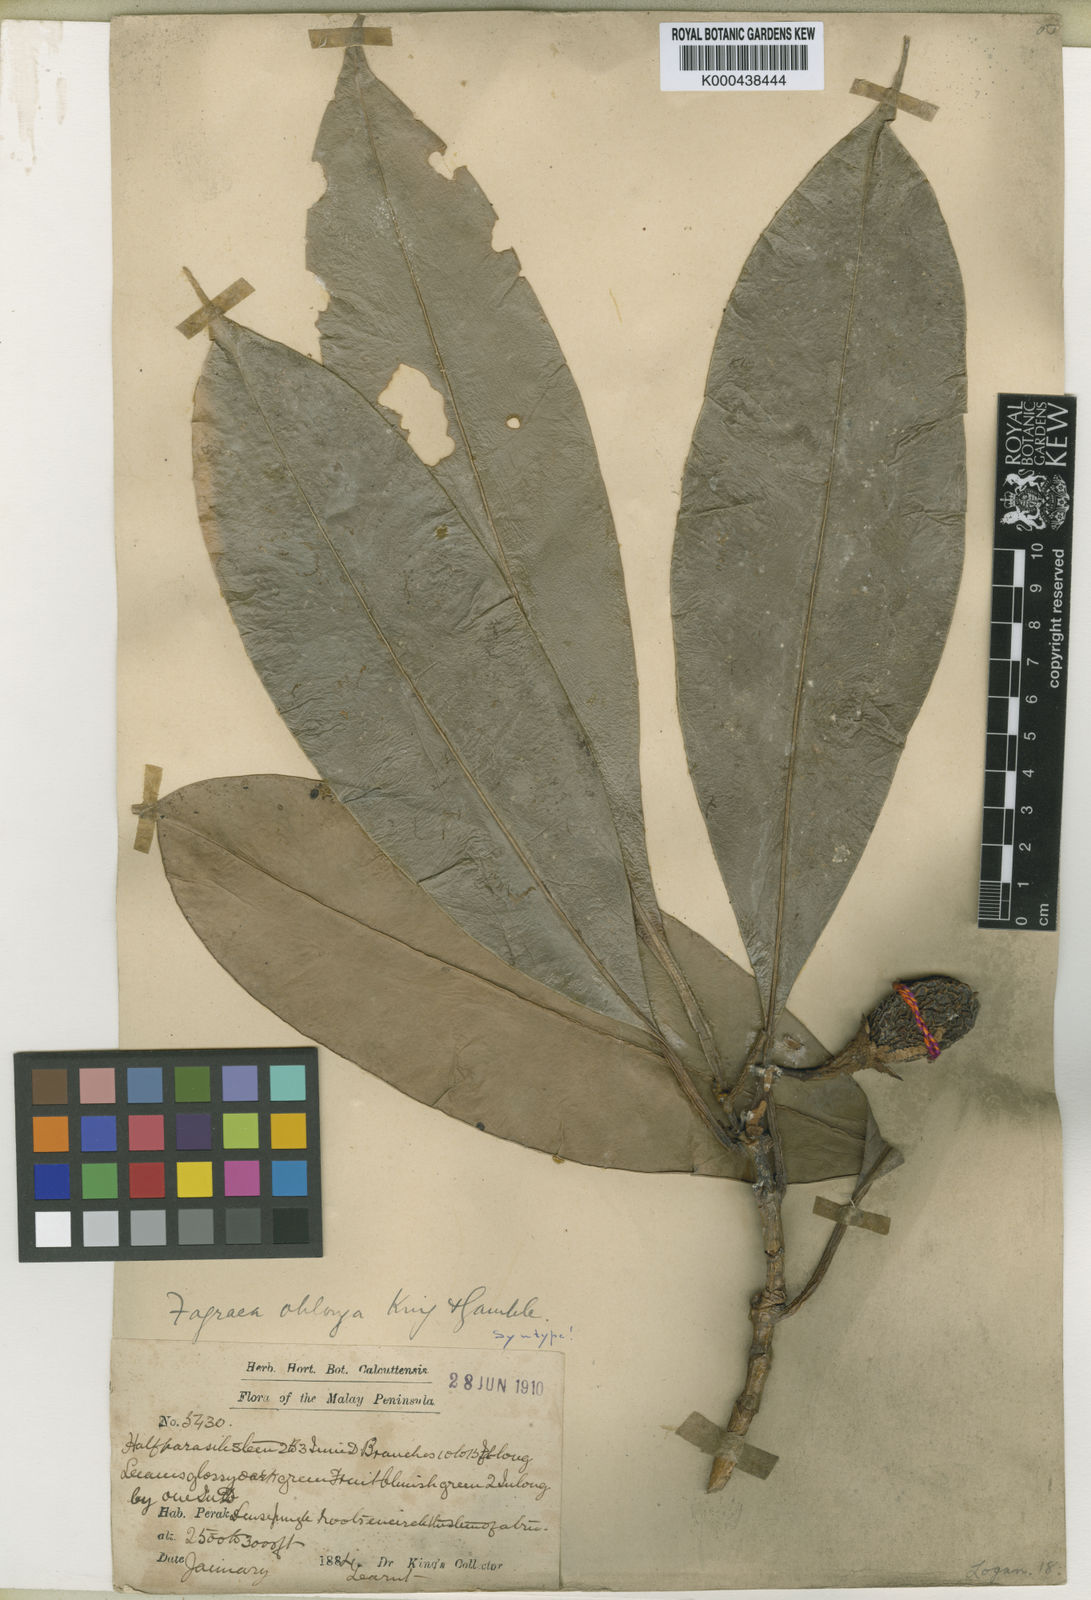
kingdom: Plantae
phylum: Tracheophyta
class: Magnoliopsida
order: Gentianales
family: Gentianaceae
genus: Fagraea
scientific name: Fagraea oblonga
